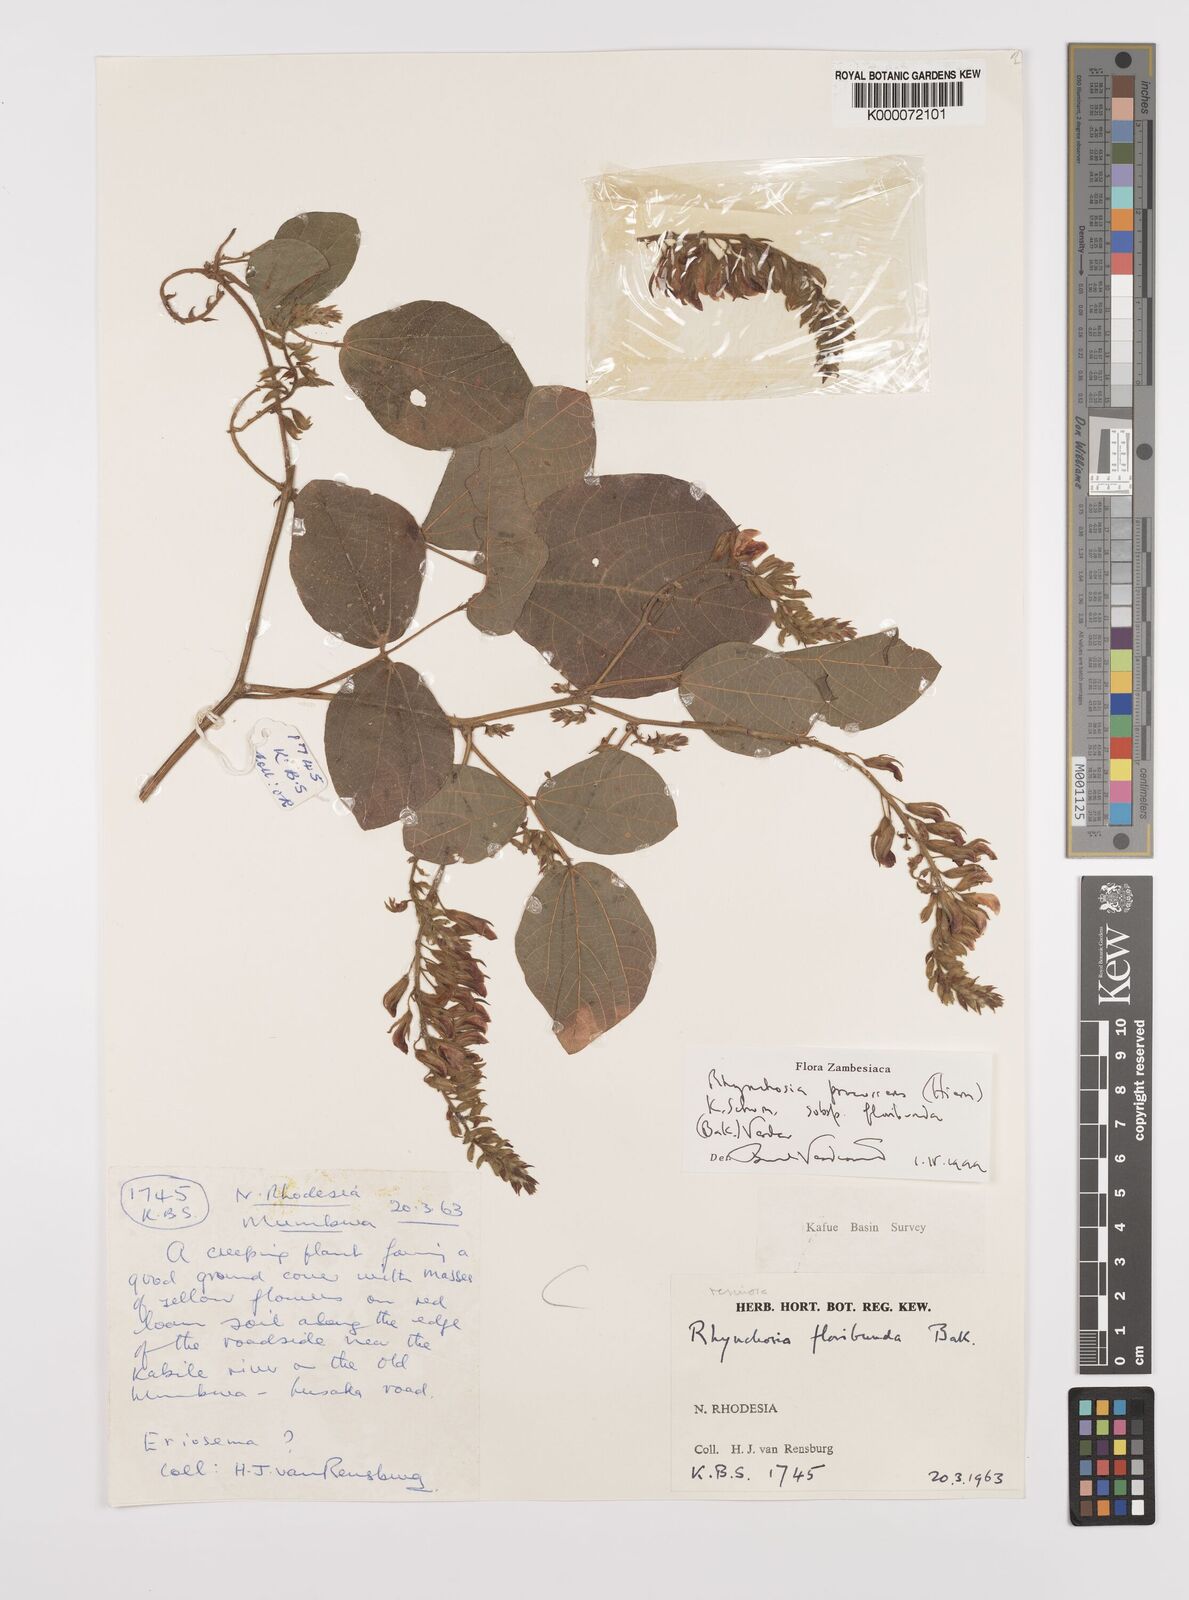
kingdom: Plantae
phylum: Tracheophyta
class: Magnoliopsida
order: Fabales
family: Fabaceae
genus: Rhynchosia
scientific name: Rhynchosia procurrens
